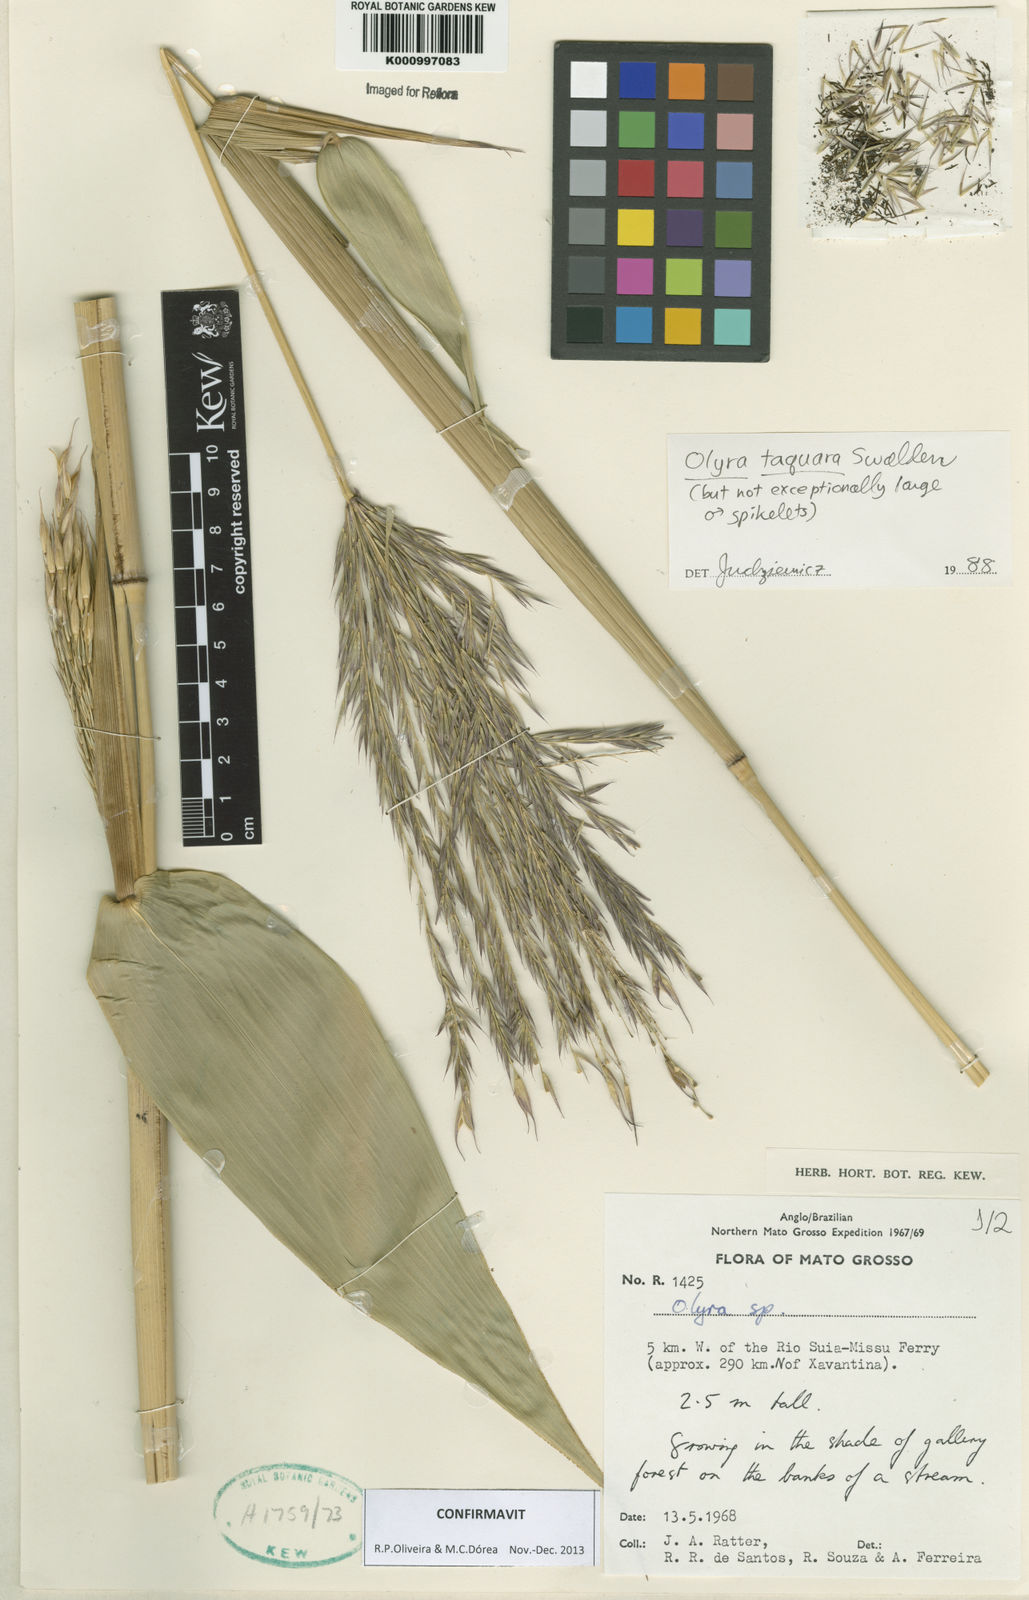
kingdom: Plantae
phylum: Tracheophyta
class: Liliopsida
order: Poales
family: Poaceae
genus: Olyra
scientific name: Olyra taquara
